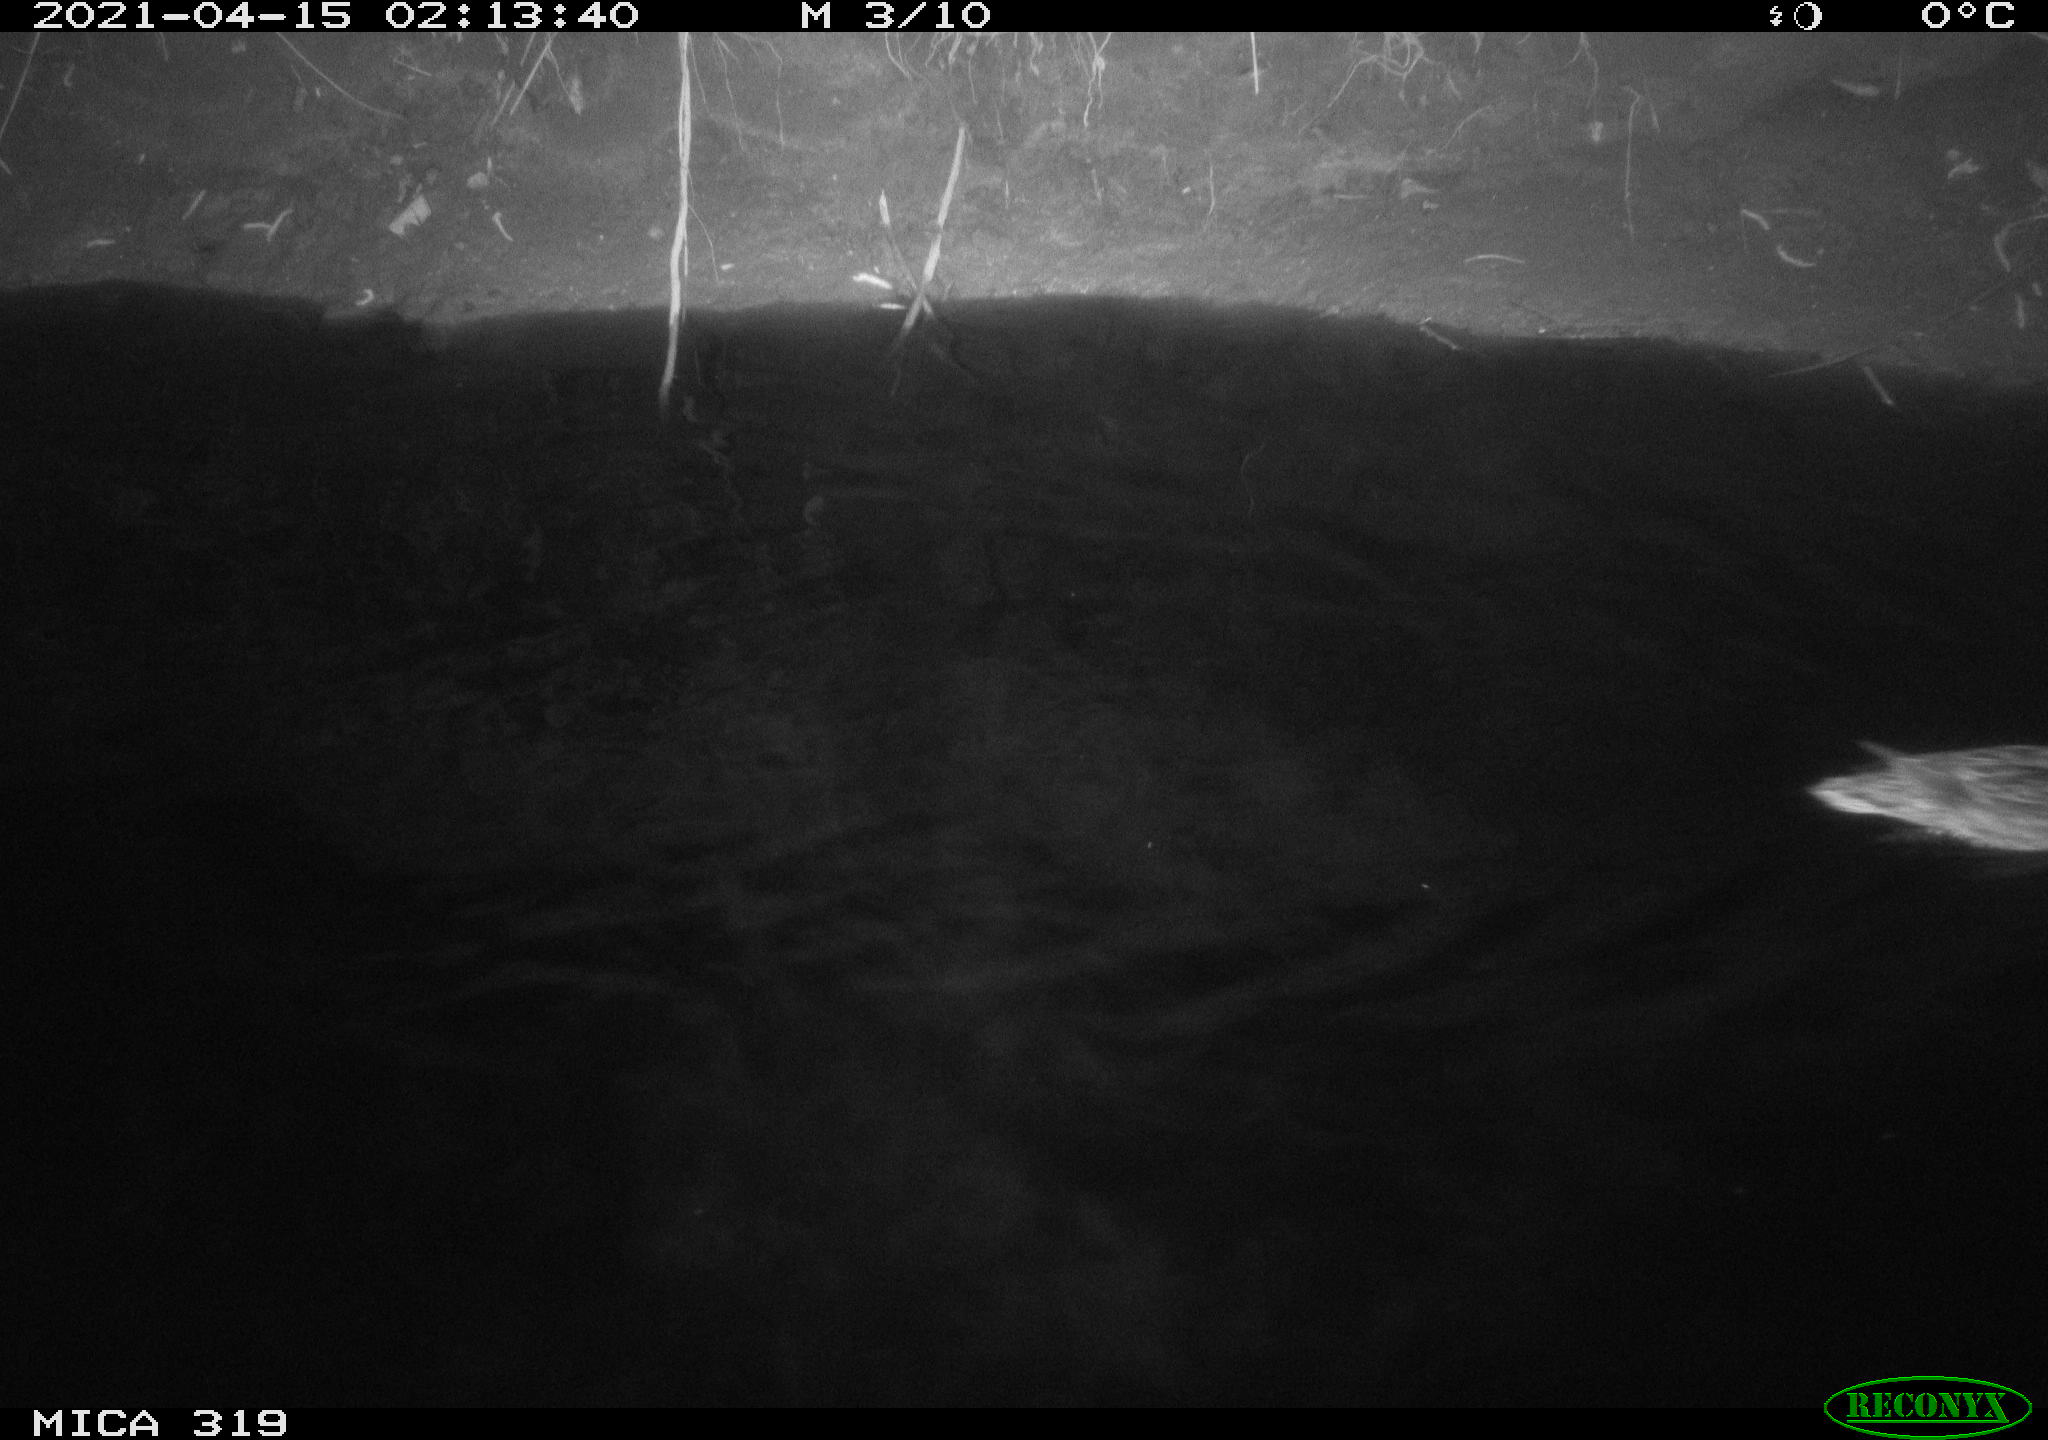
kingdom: Animalia
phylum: Chordata
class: Aves
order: Anseriformes
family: Anatidae
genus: Anas
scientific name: Anas platyrhynchos
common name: Mallard
